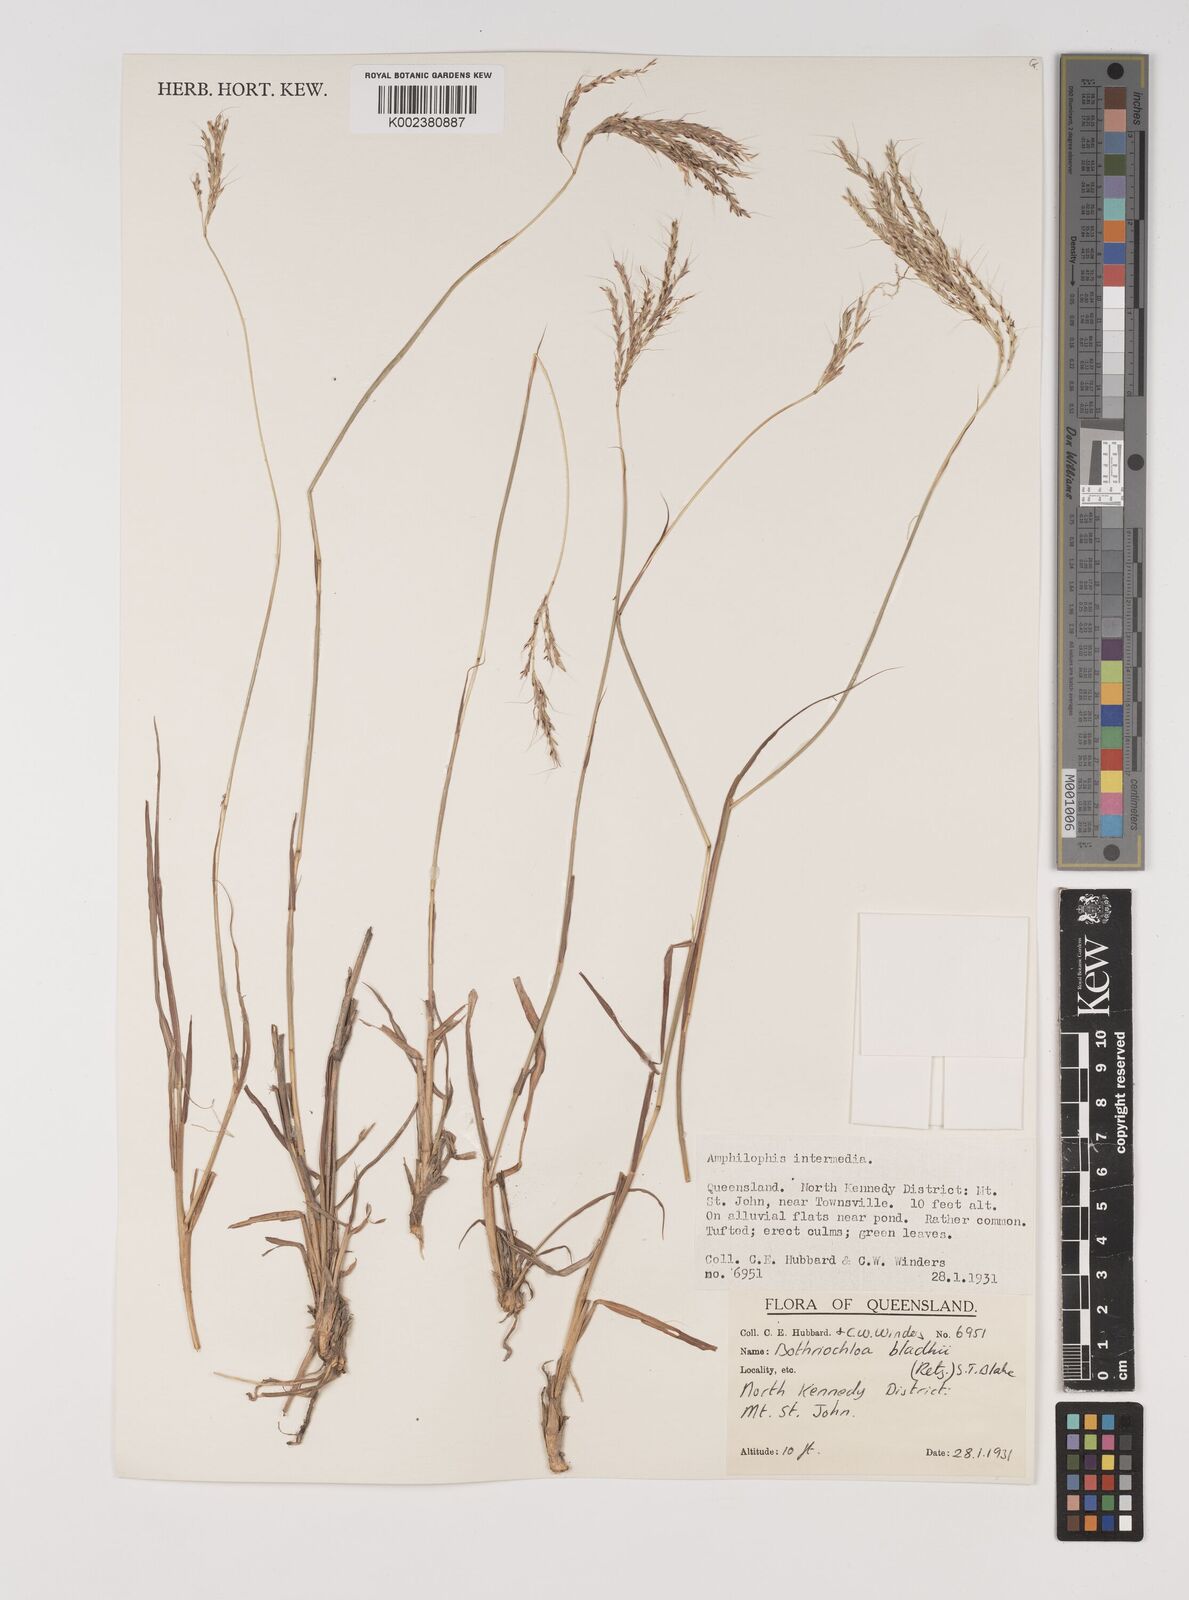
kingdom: Plantae
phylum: Tracheophyta
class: Liliopsida
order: Poales
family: Poaceae
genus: Bothriochloa
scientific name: Bothriochloa bladhii
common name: Caucasian bluestem
